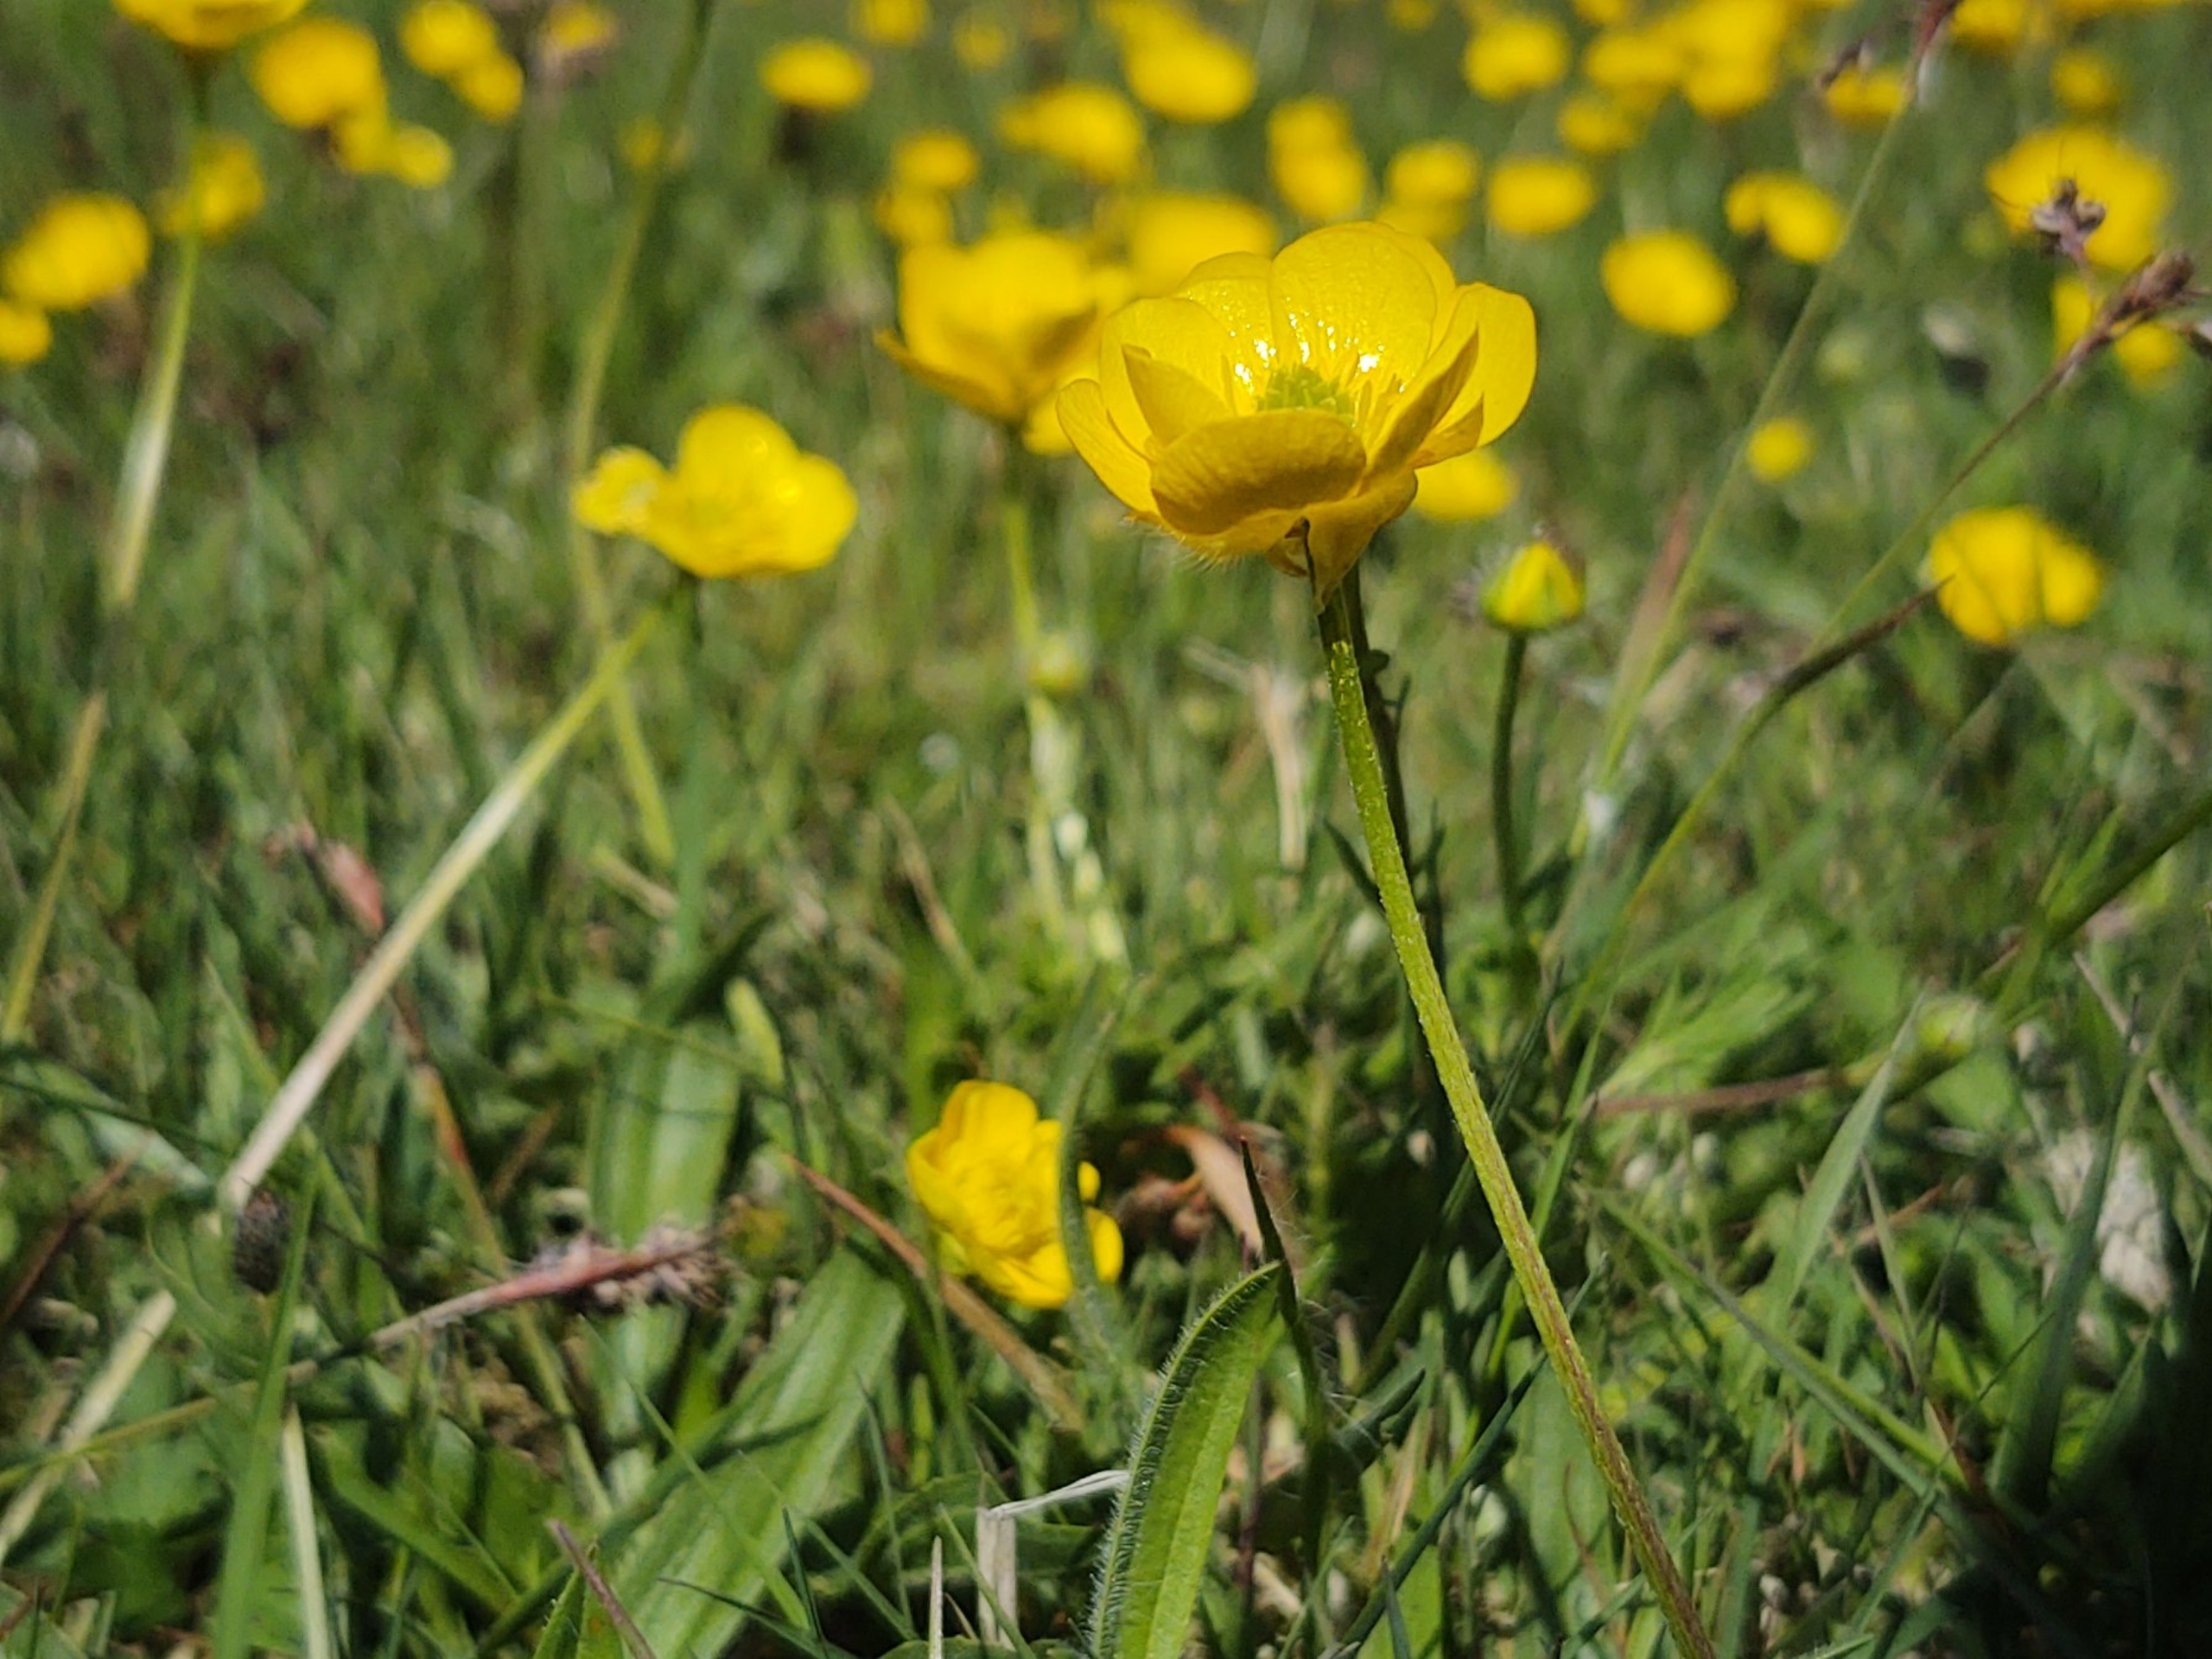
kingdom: Plantae
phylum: Tracheophyta
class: Magnoliopsida
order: Ranunculales
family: Ranunculaceae
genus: Ranunculus
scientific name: Ranunculus bulbosus
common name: Knold-ranunkel
